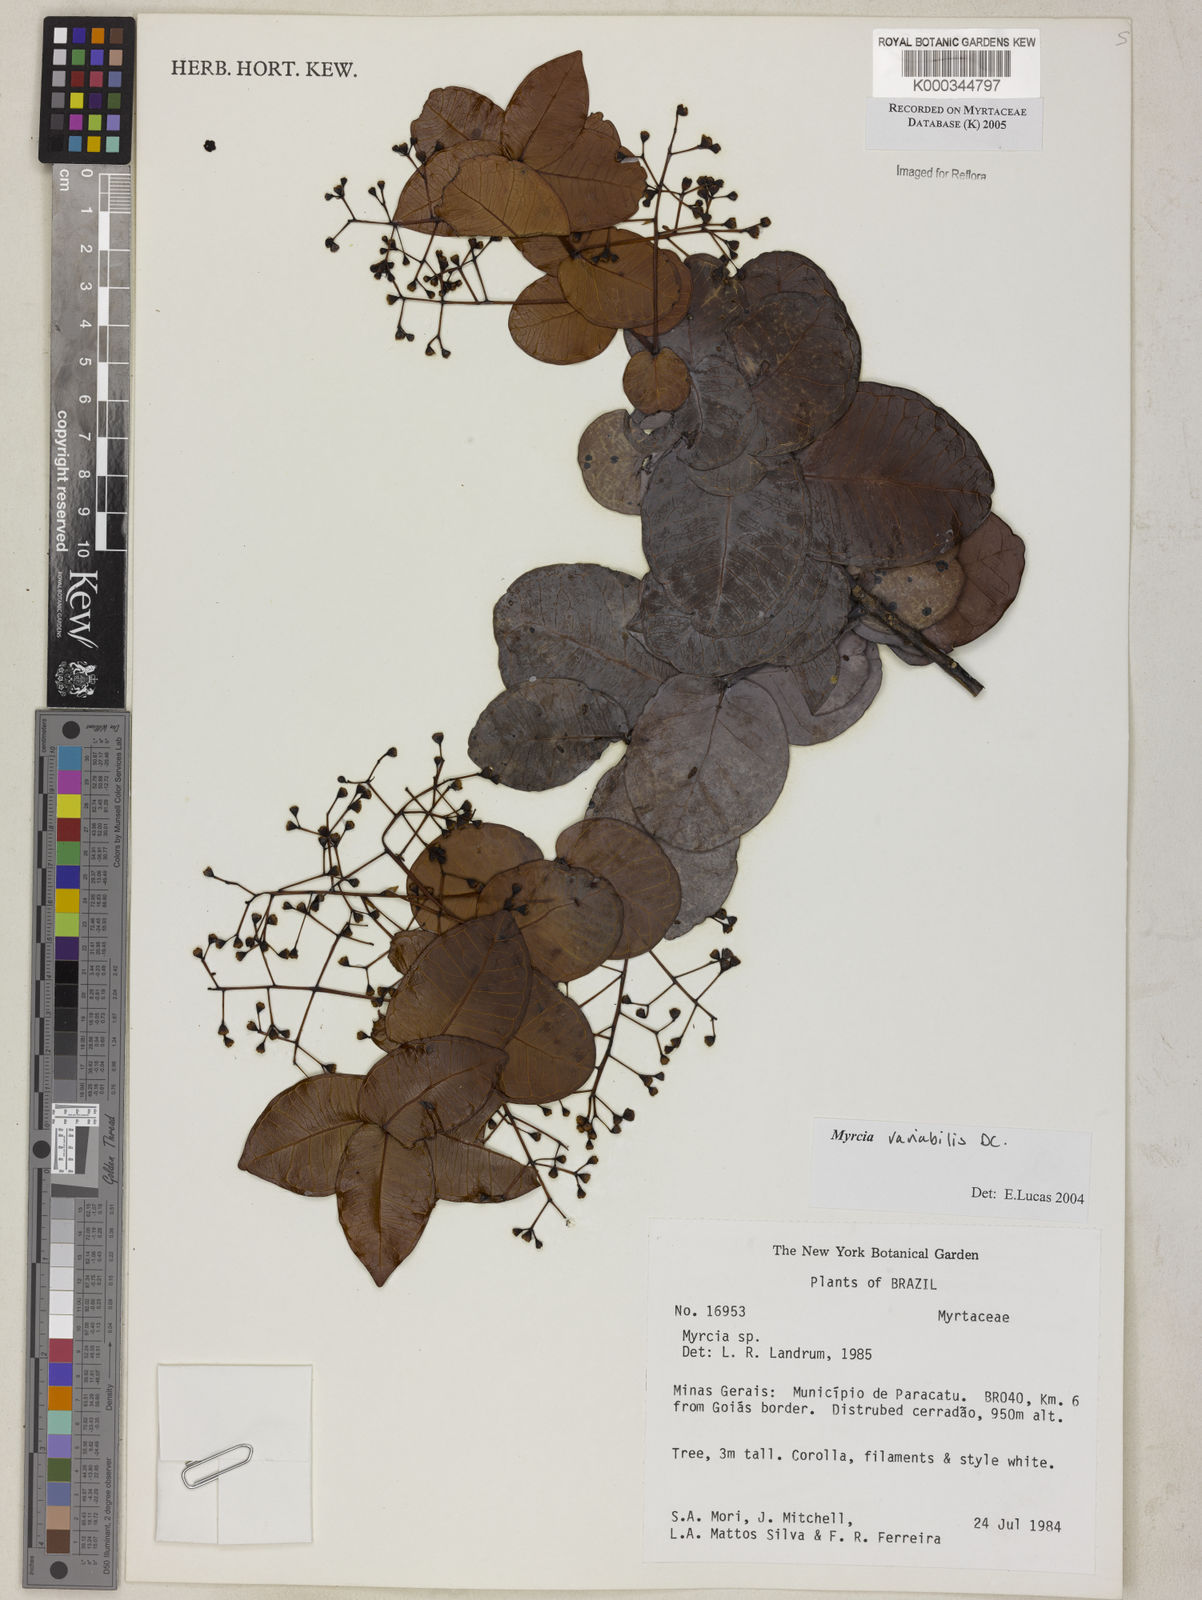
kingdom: Plantae
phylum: Tracheophyta
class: Magnoliopsida
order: Myrtales
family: Myrtaceae
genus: Myrcia
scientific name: Myrcia variabilis
